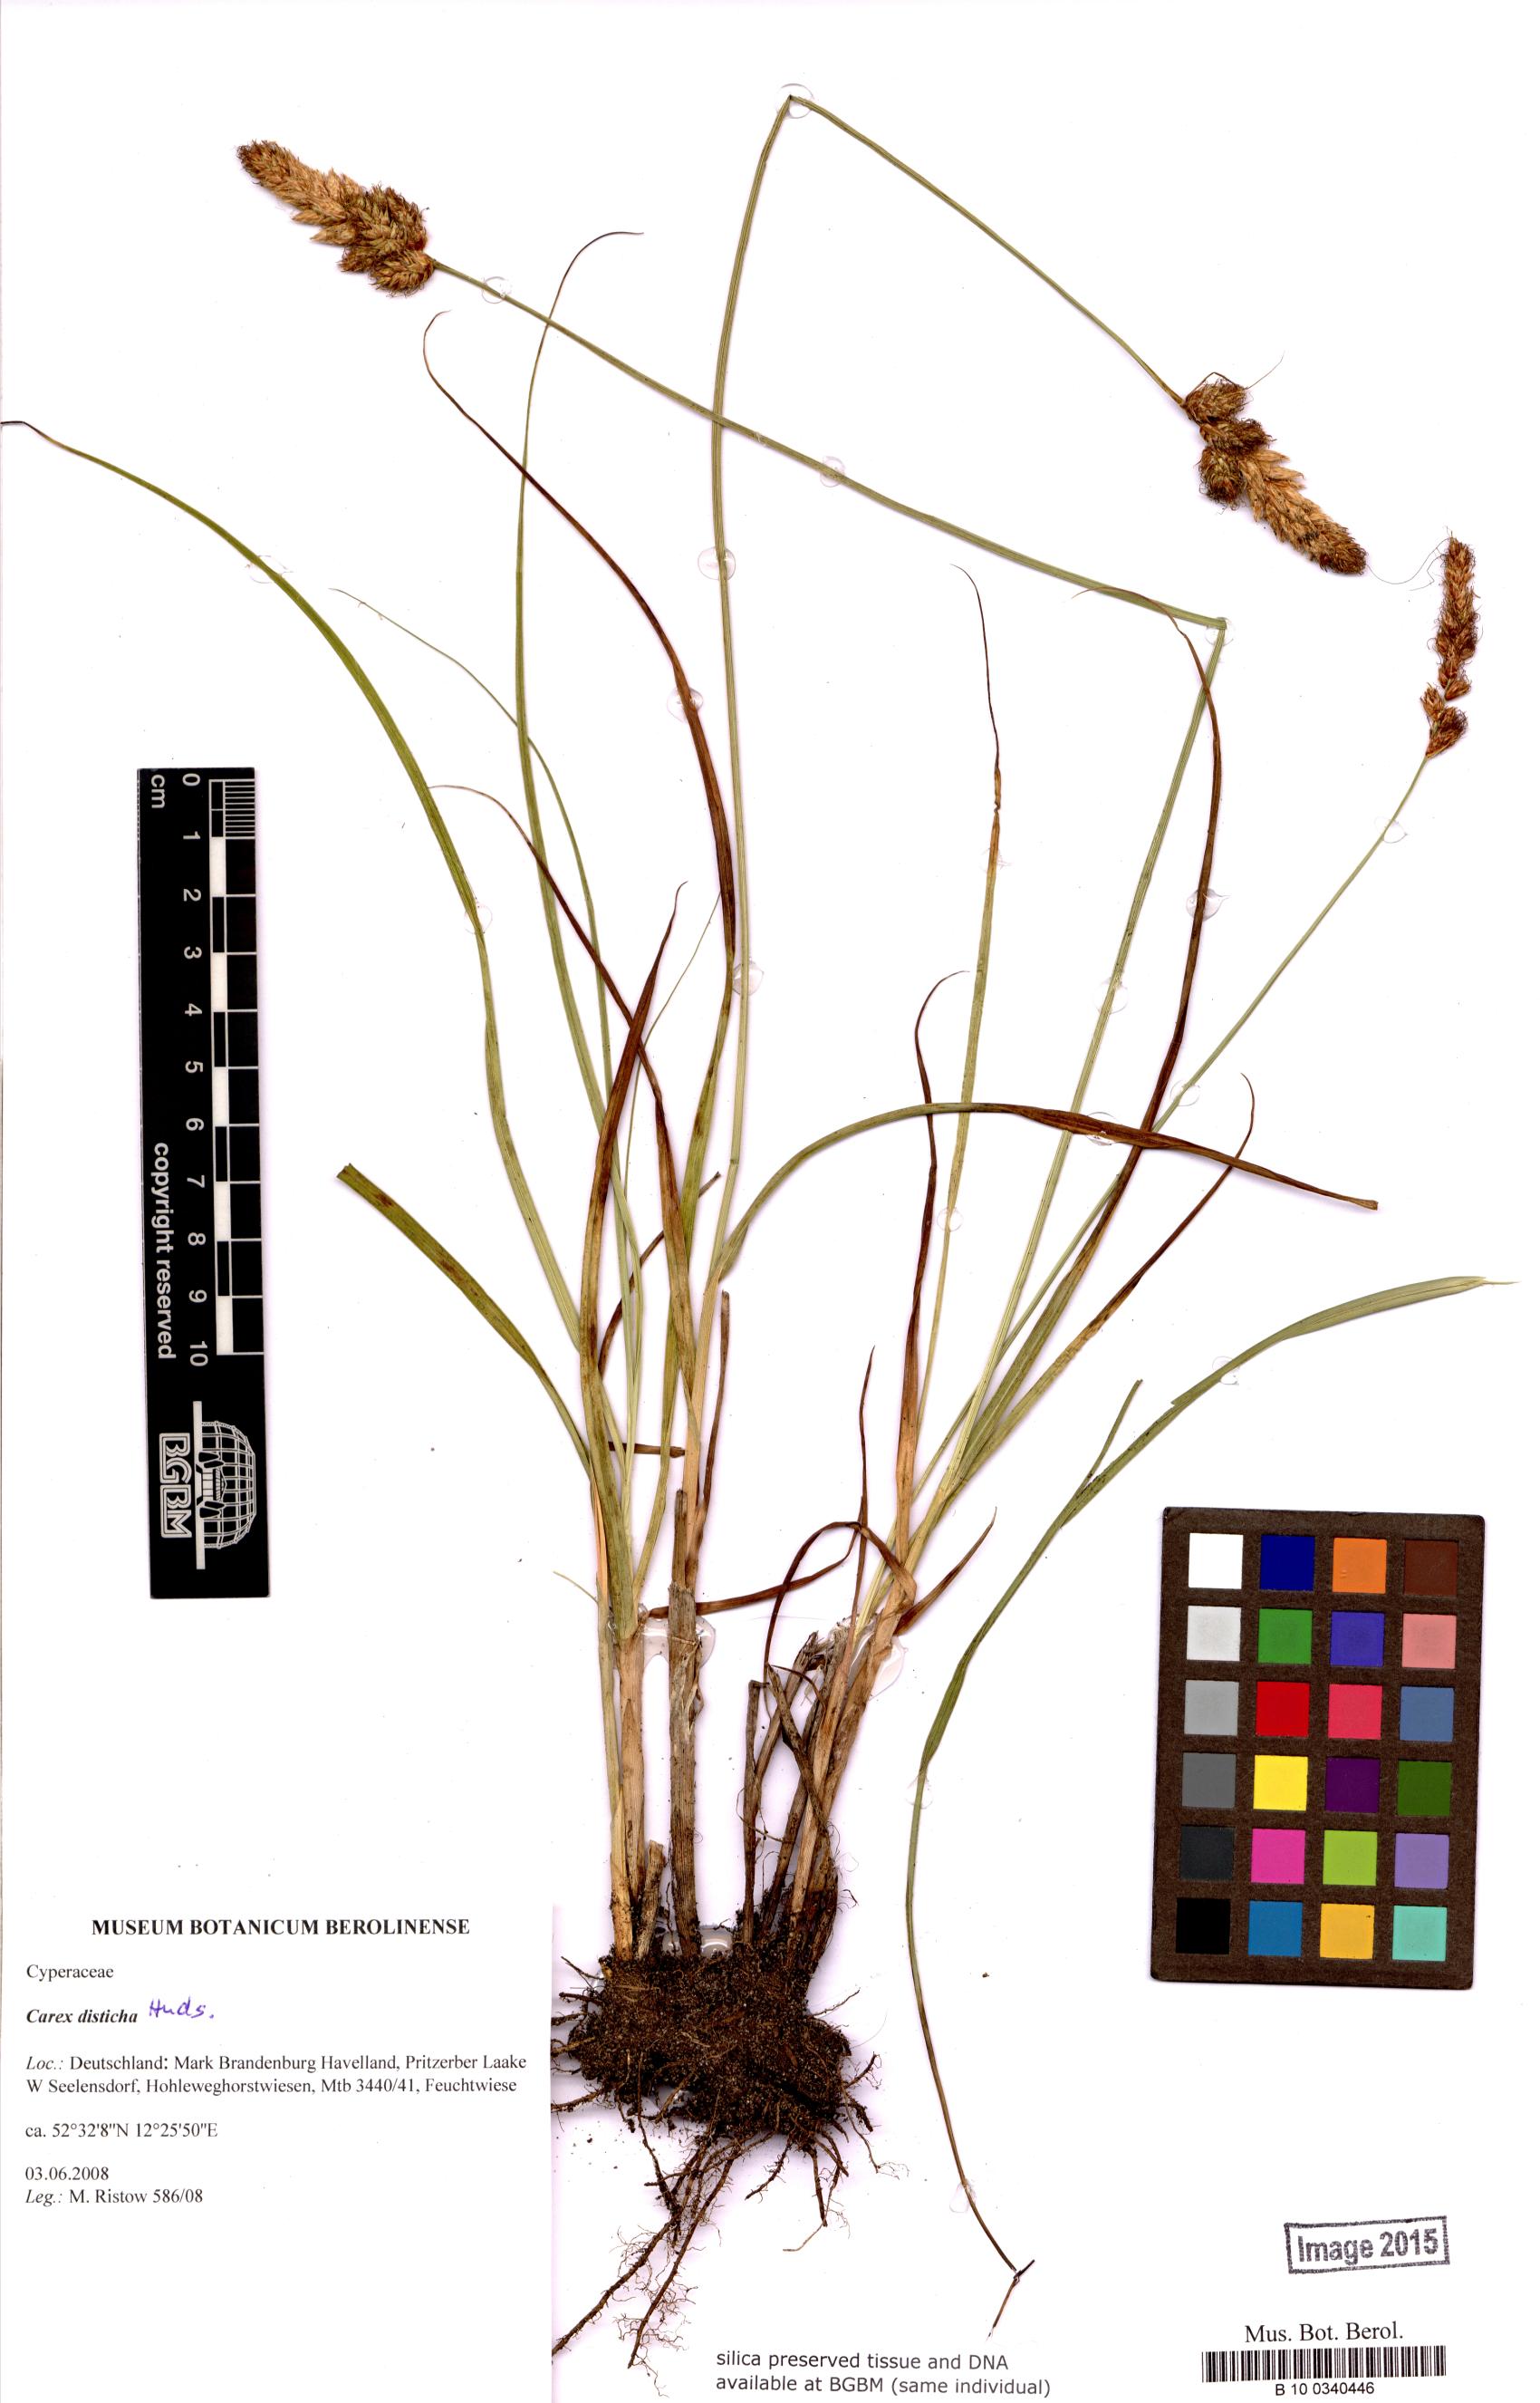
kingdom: Plantae
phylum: Tracheophyta
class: Liliopsida
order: Poales
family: Cyperaceae
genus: Carex
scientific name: Carex disticha
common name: Brown sedge
